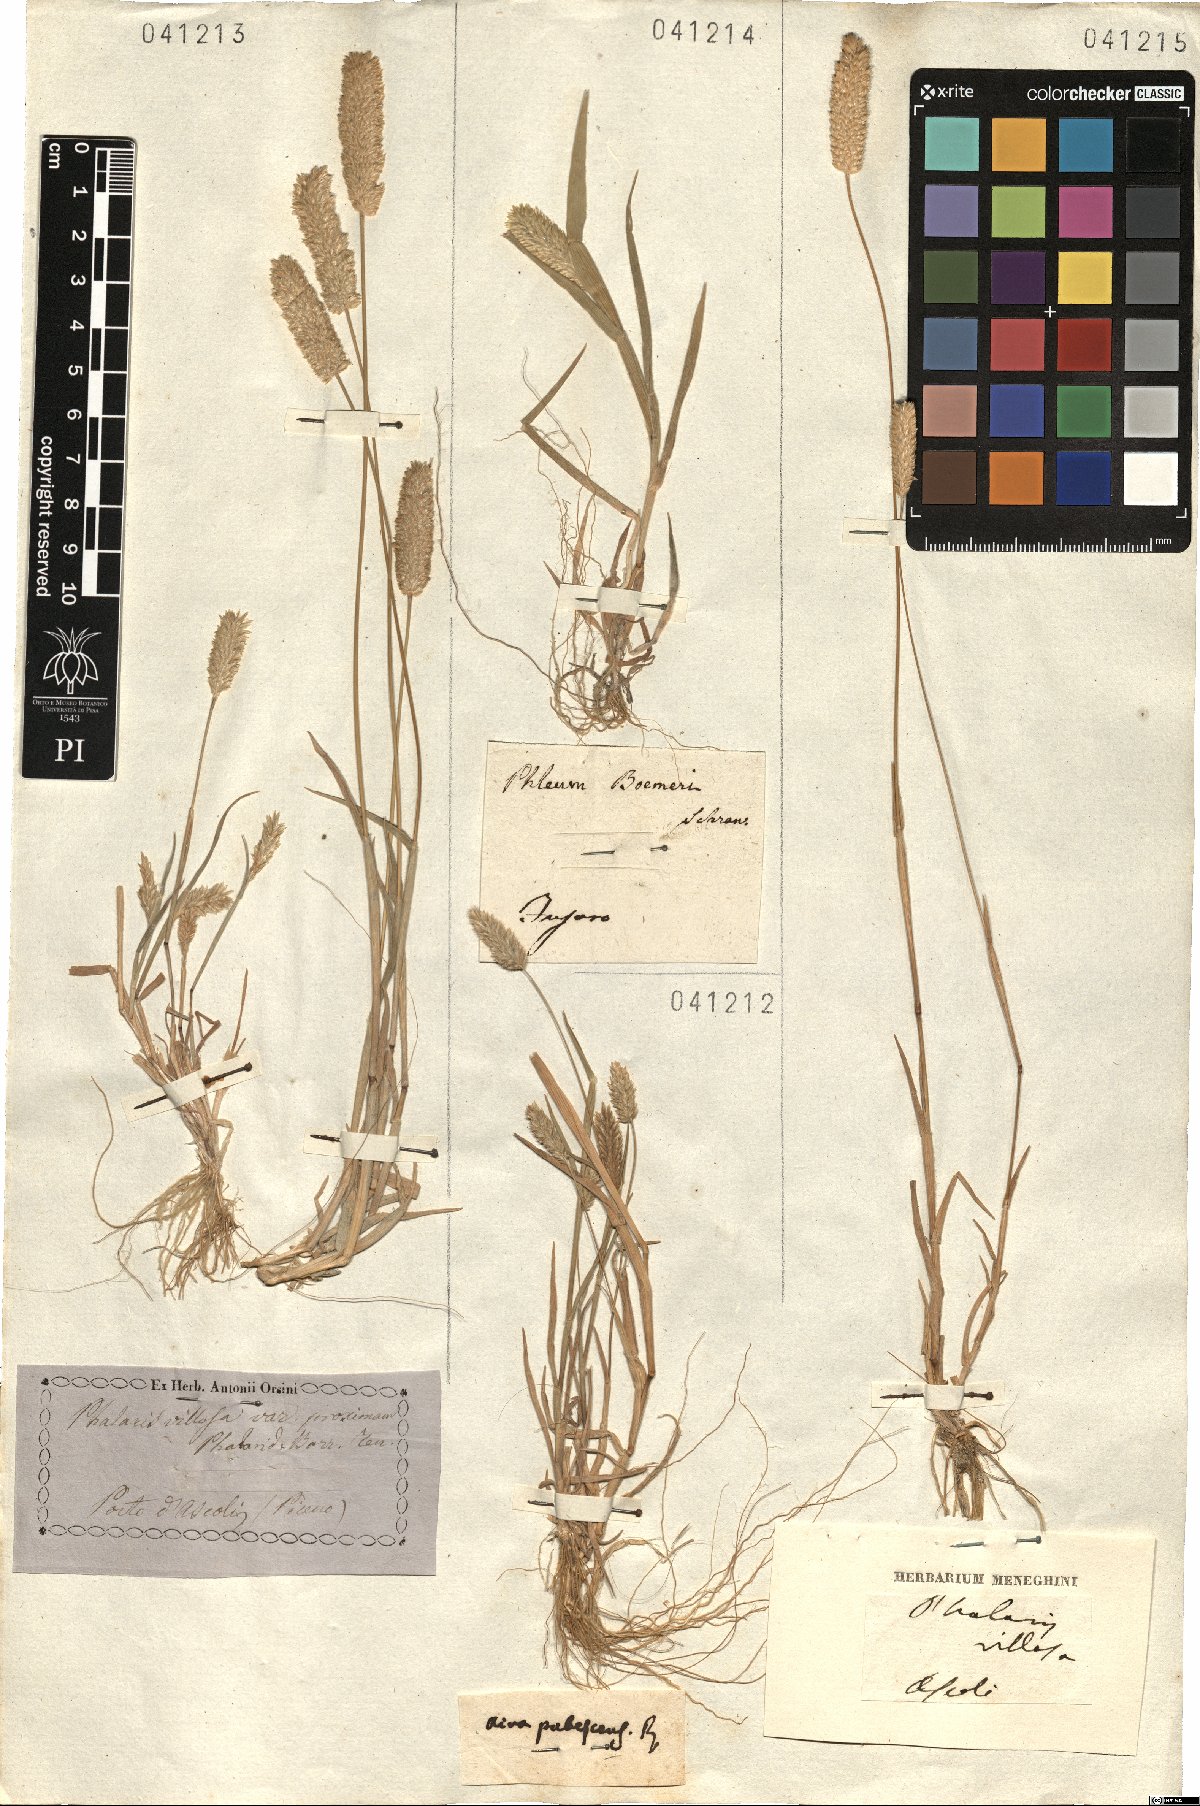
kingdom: Plantae
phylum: Tracheophyta
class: Liliopsida
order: Poales
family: Poaceae
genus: Anthenantia
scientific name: Anthenantia villosa
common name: Green silkyscale
